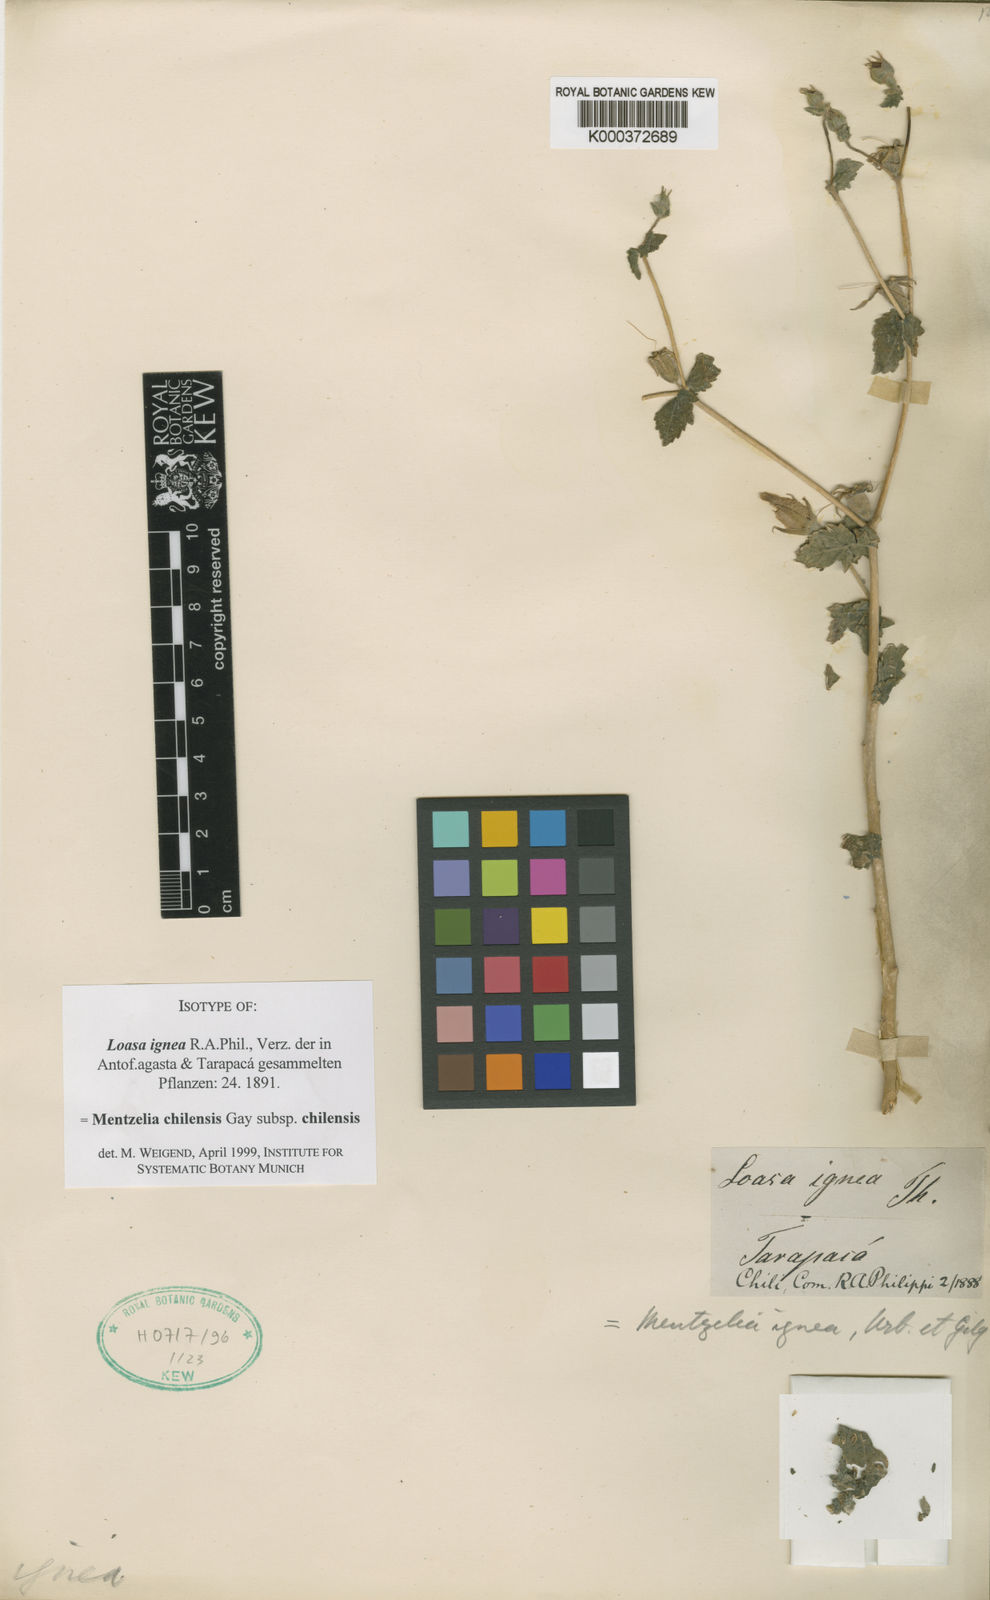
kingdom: Plantae
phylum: Tracheophyta
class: Magnoliopsida
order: Cornales
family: Loasaceae
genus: Mentzelia
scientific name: Mentzelia scabra
